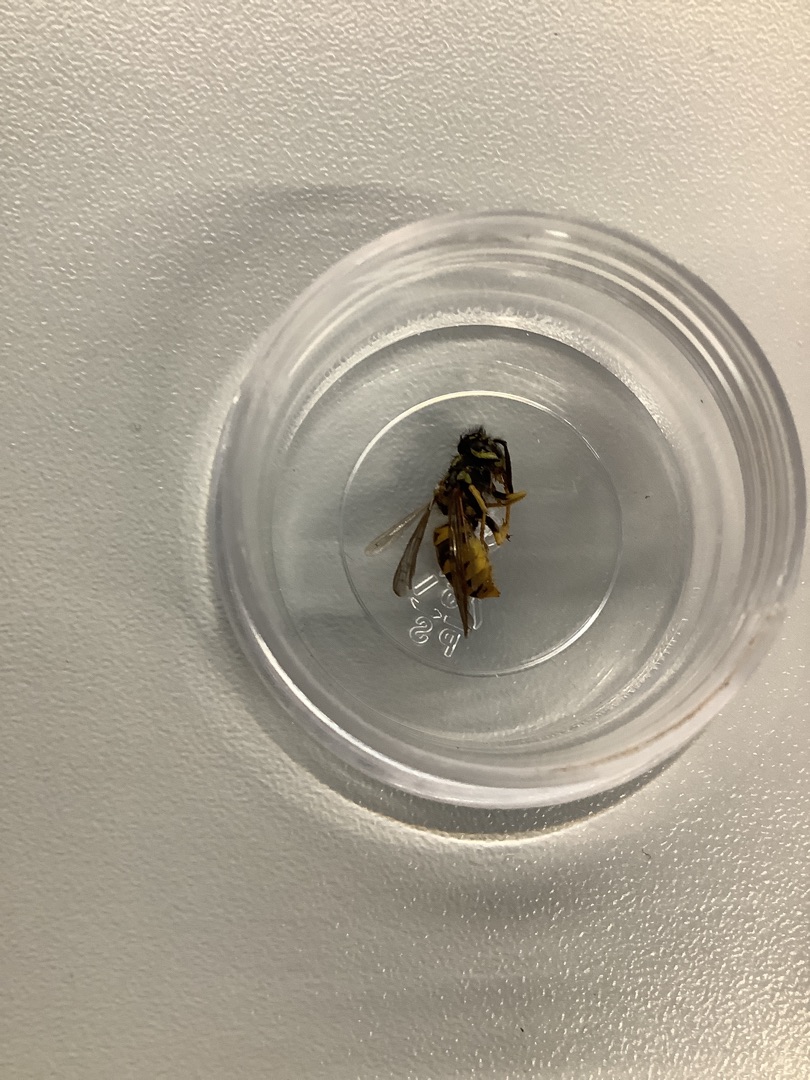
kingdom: Animalia
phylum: Arthropoda
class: Insecta
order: Hymenoptera
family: Vespidae
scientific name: Vespidae
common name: Gedehamse
